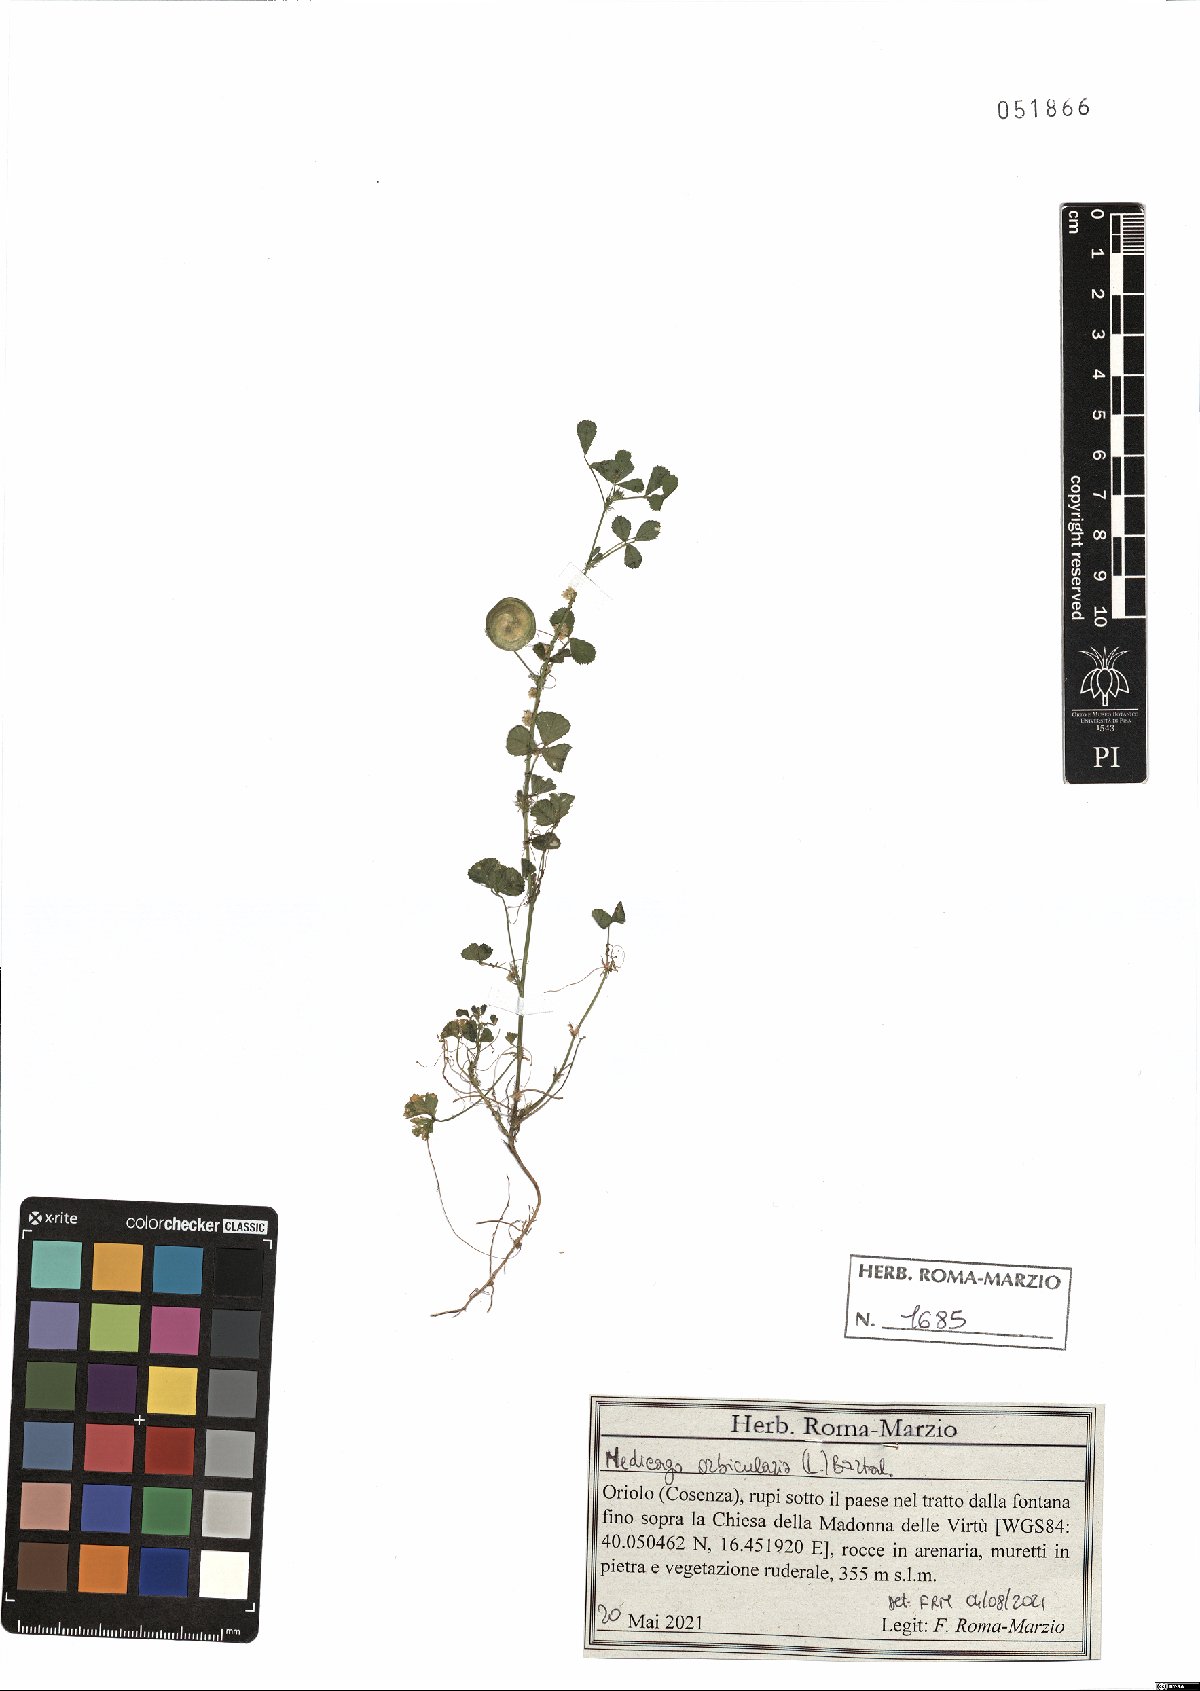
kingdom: Plantae
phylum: Tracheophyta
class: Magnoliopsida
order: Fabales
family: Fabaceae
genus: Medicago
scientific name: Medicago orbicularis
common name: Button medick
